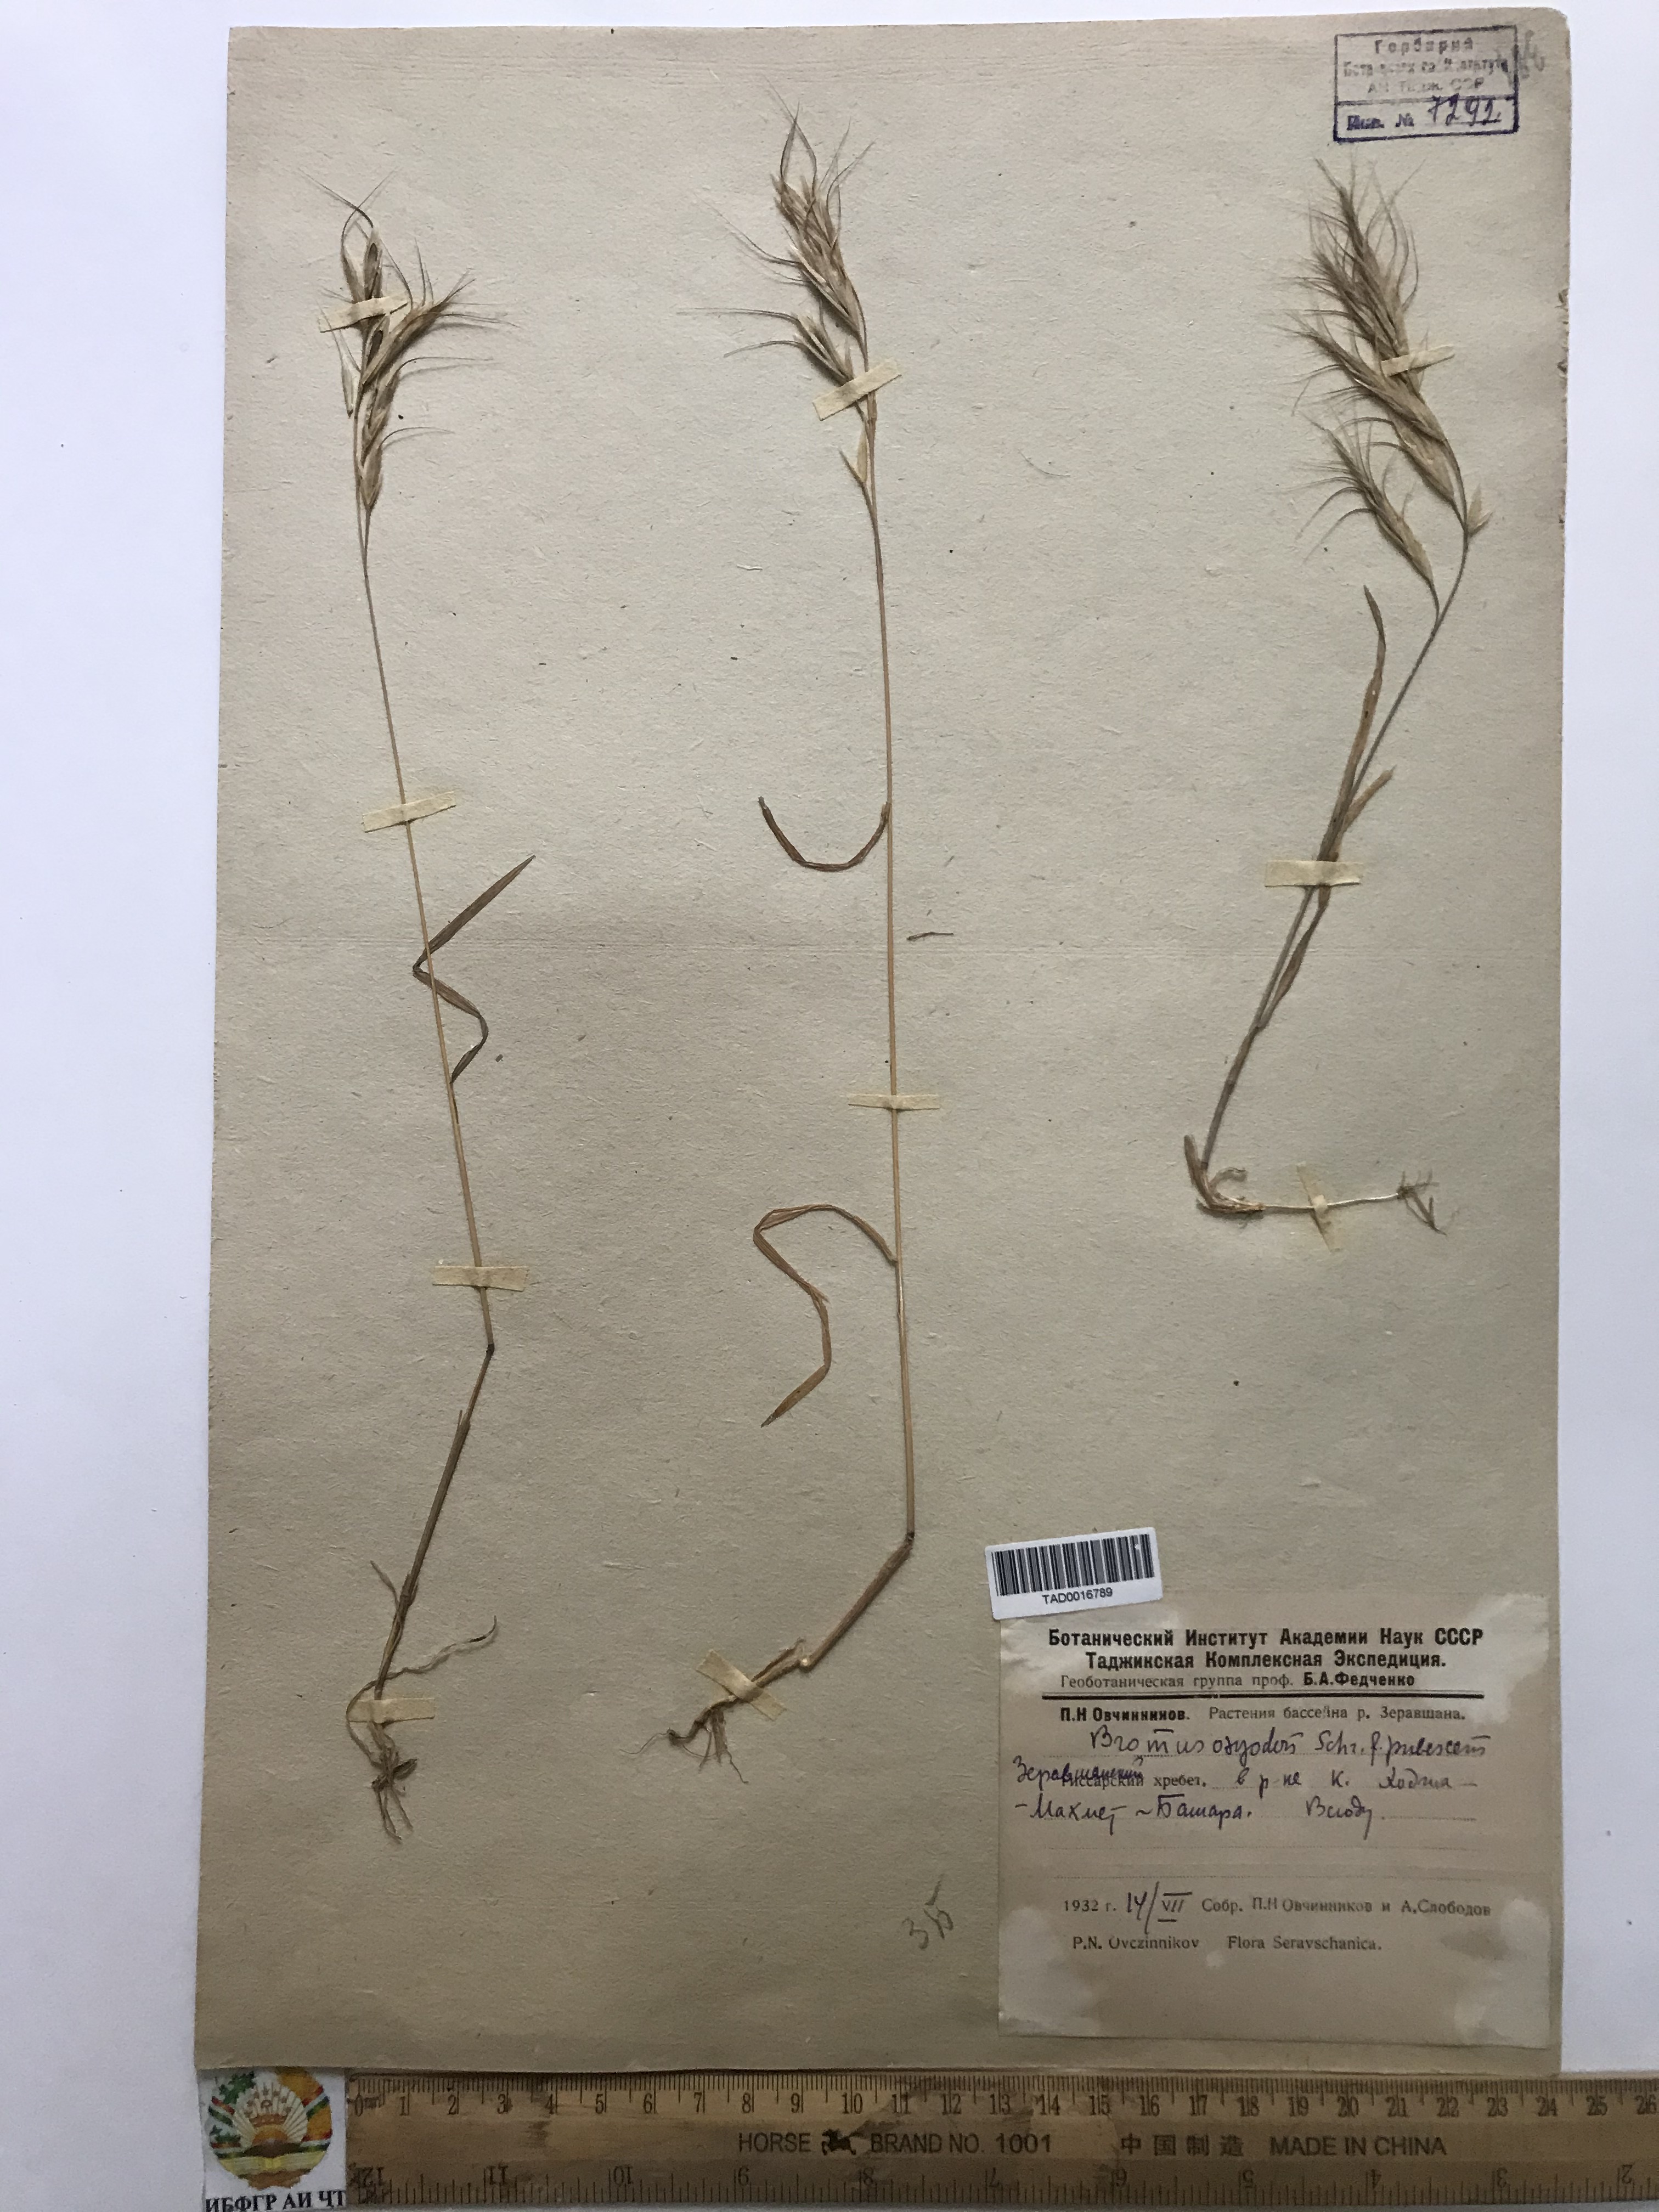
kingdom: Plantae
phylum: Tracheophyta
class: Liliopsida
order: Poales
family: Poaceae
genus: Bromus
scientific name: Bromus oxyodon
